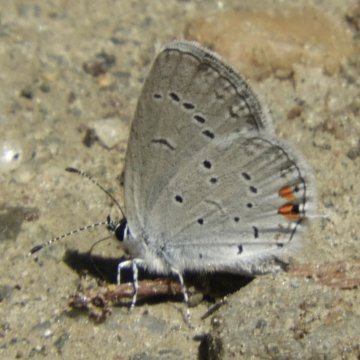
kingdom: Animalia
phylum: Arthropoda
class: Insecta
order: Lepidoptera
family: Lycaenidae
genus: Elkalyce
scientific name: Elkalyce comyntas
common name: Eastern Tailed-Blue
